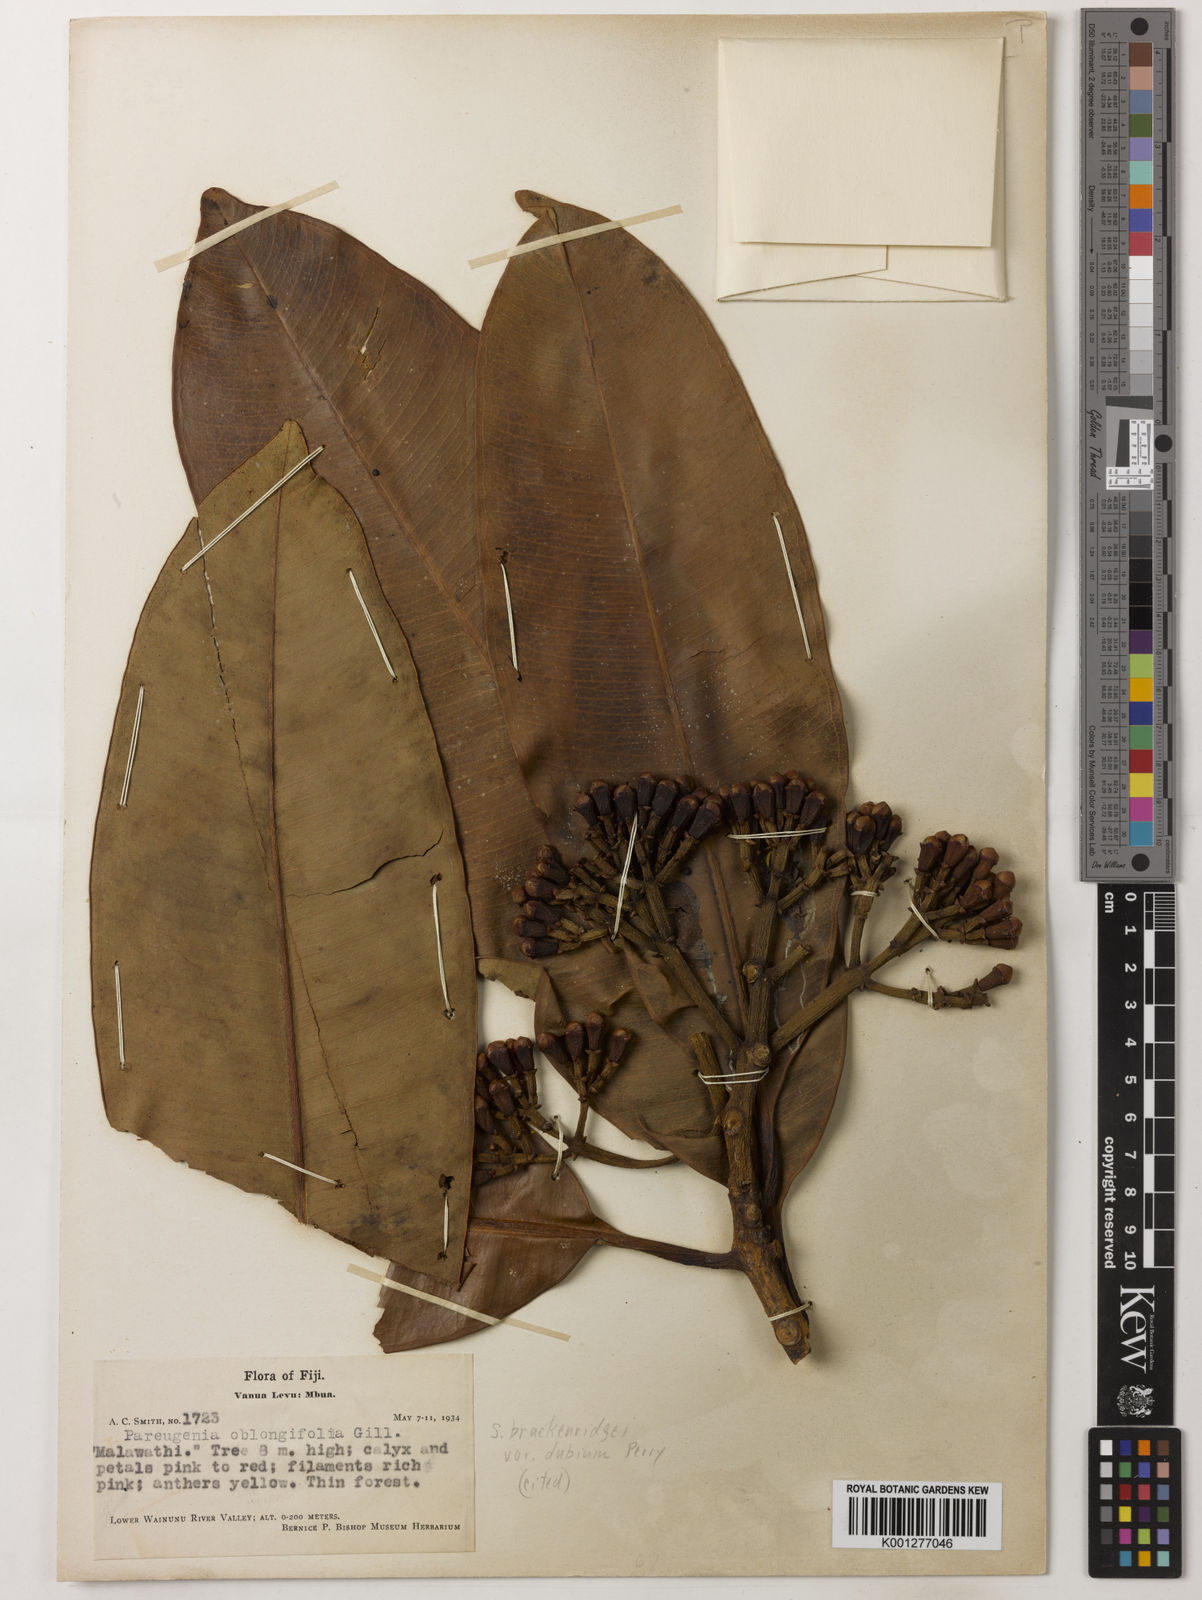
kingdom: Plantae
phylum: Tracheophyta
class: Magnoliopsida
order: Myrtales
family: Myrtaceae
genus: Syzygium
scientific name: Syzygium
